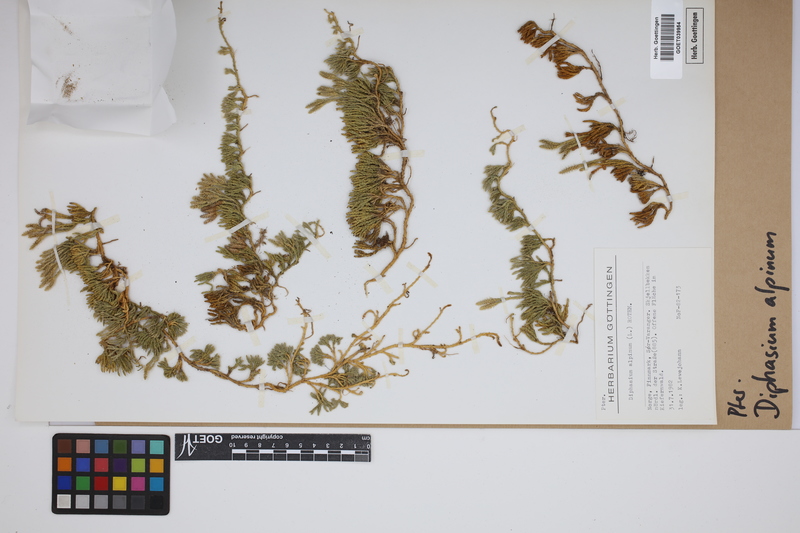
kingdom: Plantae
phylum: Tracheophyta
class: Lycopodiopsida
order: Lycopodiales
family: Lycopodiaceae
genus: Diphasiastrum
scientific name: Diphasiastrum alpinum
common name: Alpine clubmoss
